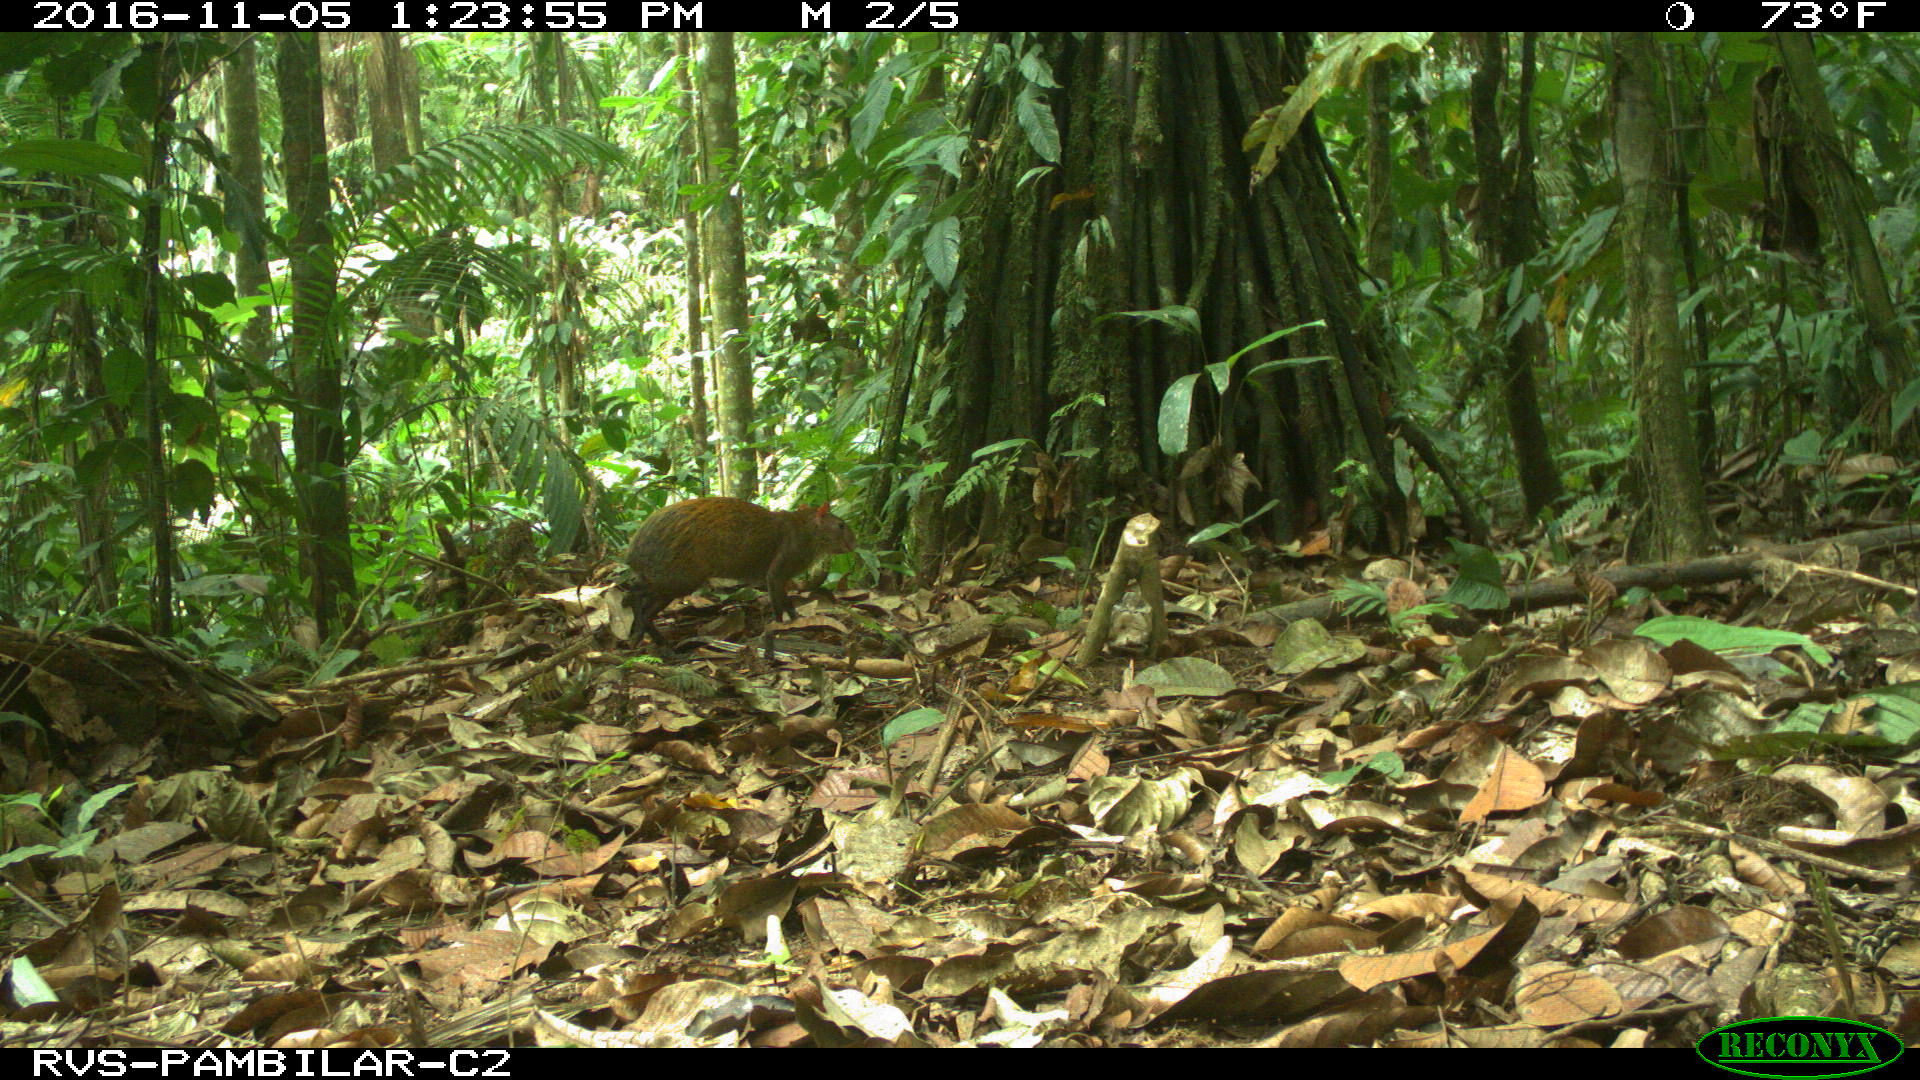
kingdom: Animalia
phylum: Chordata
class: Mammalia
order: Rodentia
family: Dasyproctidae
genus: Dasyprocta
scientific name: Dasyprocta punctata
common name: Central american agouti
